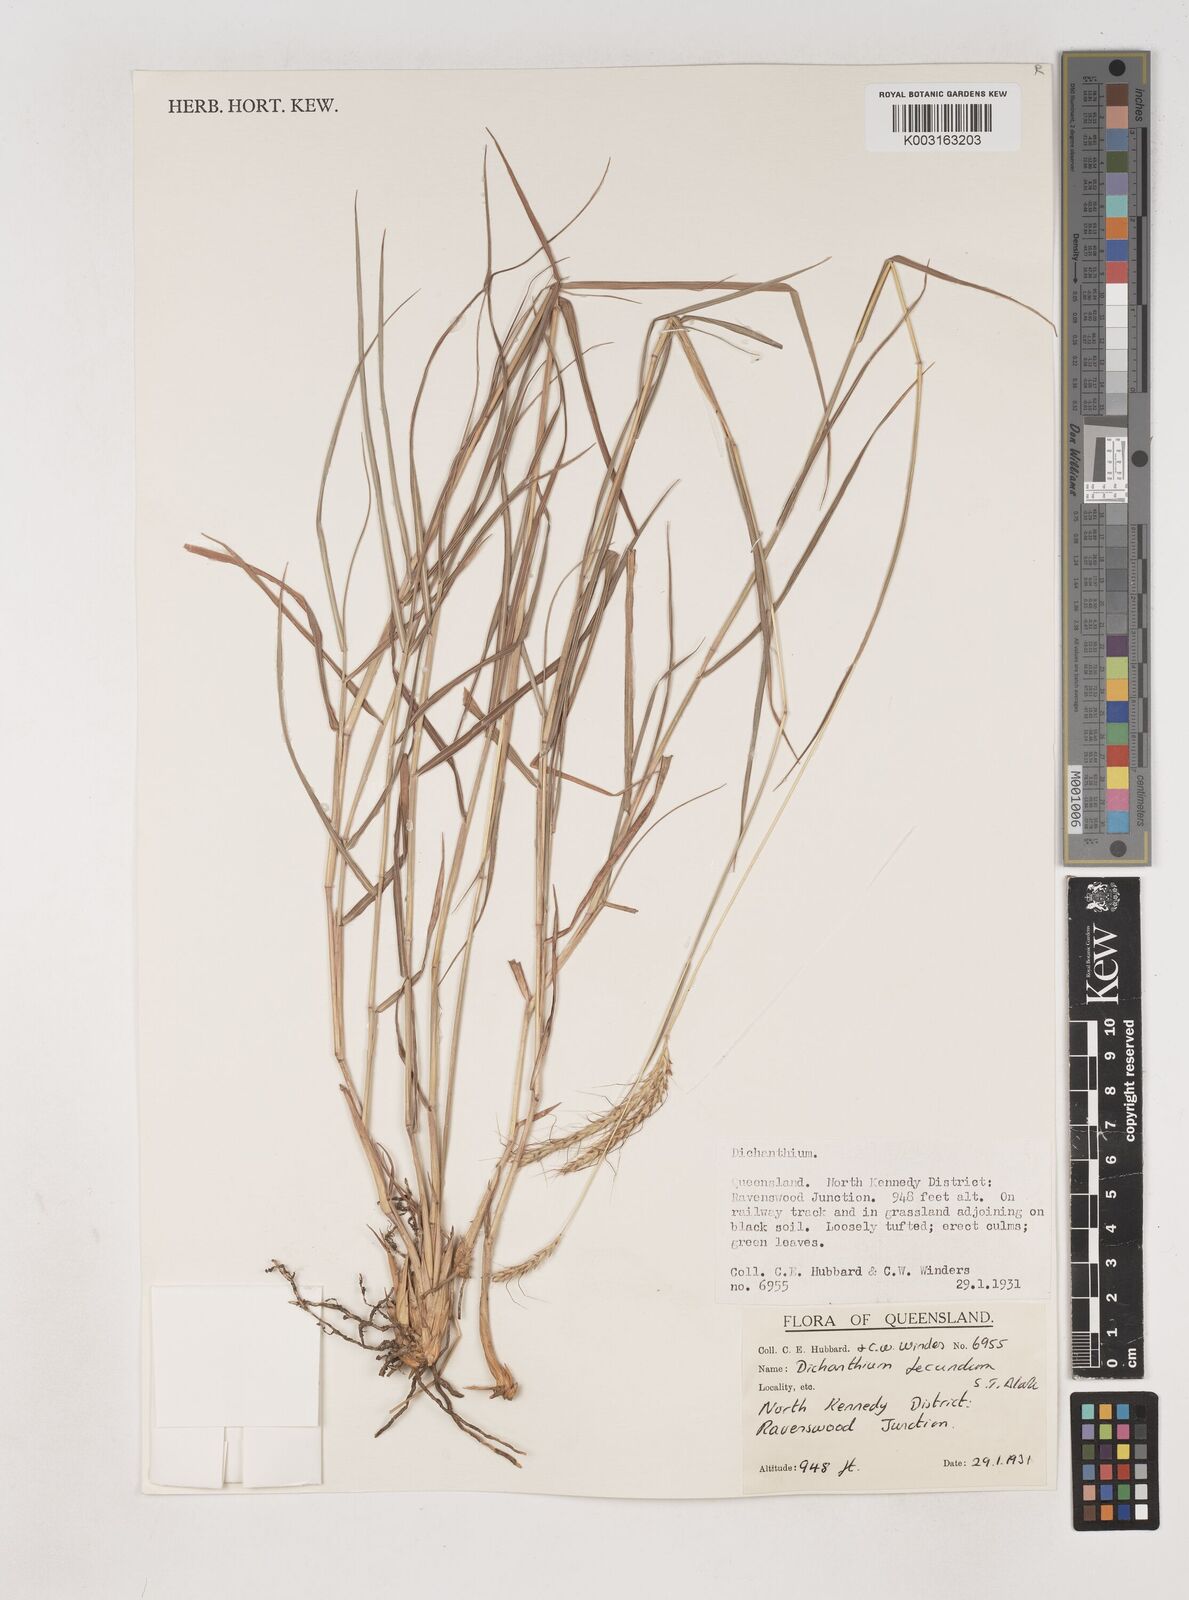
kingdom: Plantae
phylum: Tracheophyta
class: Liliopsida
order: Poales
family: Poaceae
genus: Dichanthium
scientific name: Dichanthium fecundum
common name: Bundle-bundle
